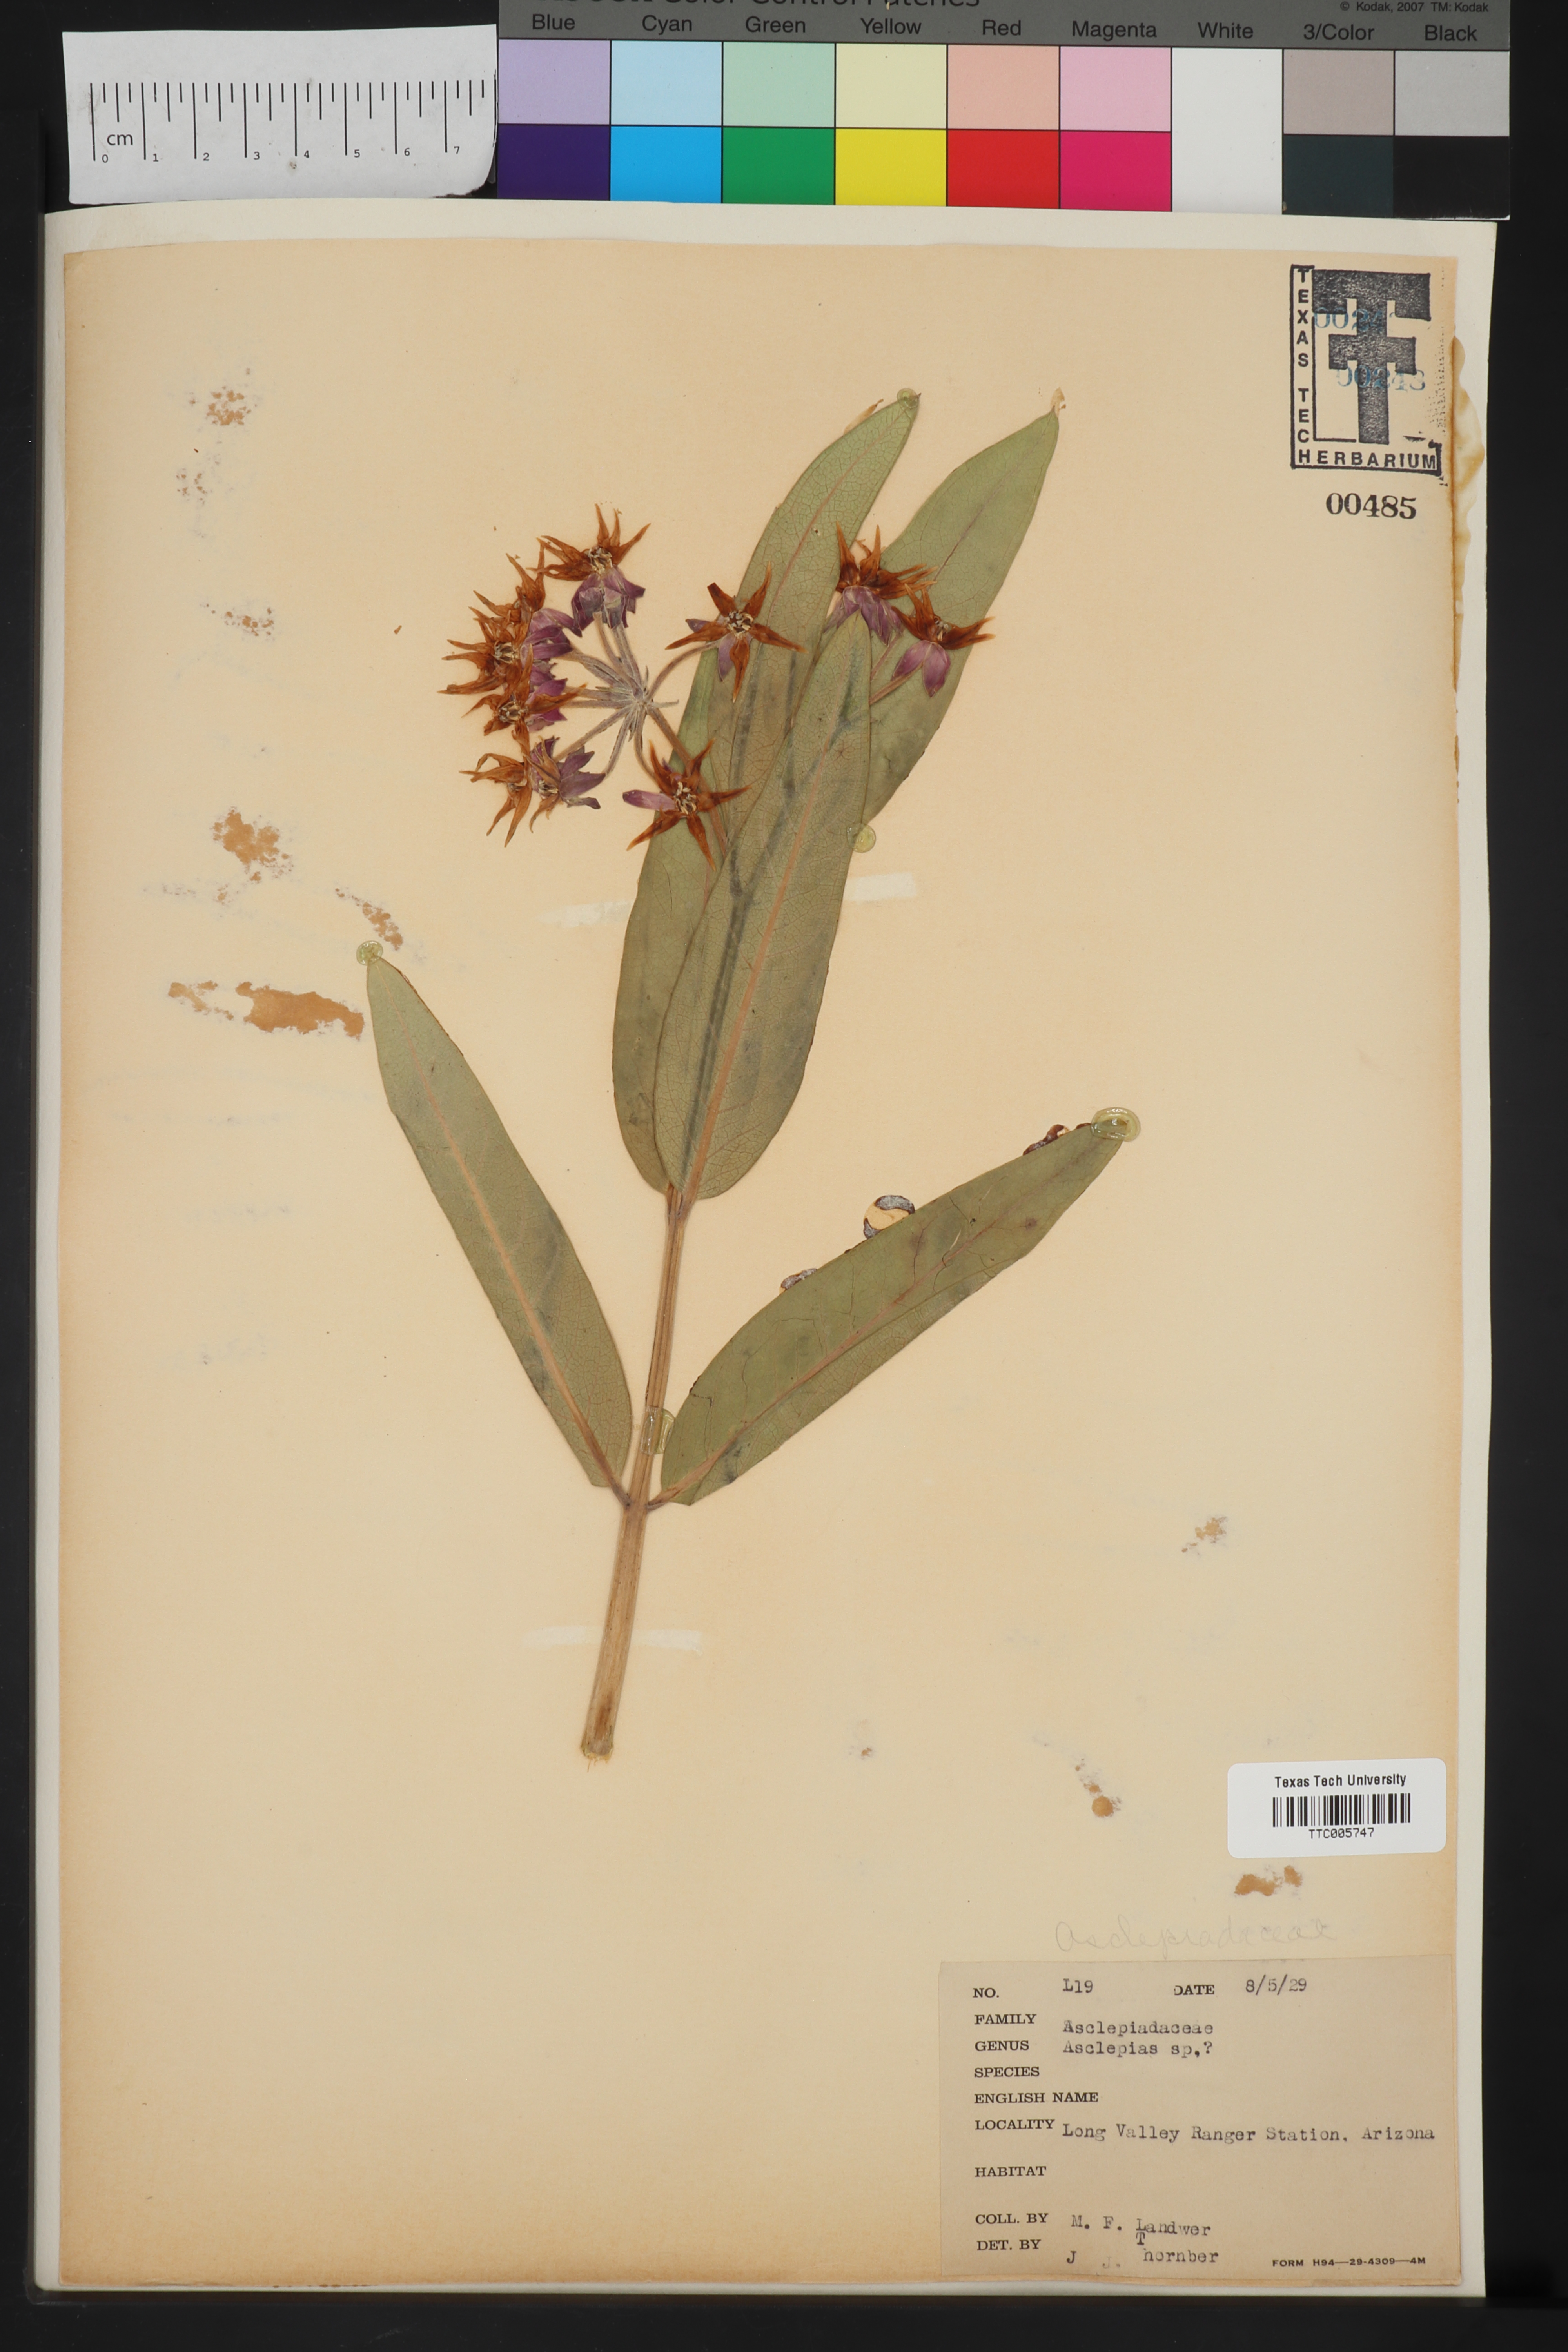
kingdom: Plantae
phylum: Tracheophyta
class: Magnoliopsida
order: Gentianales
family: Apocynaceae
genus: Asclepias
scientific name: Asclepias
